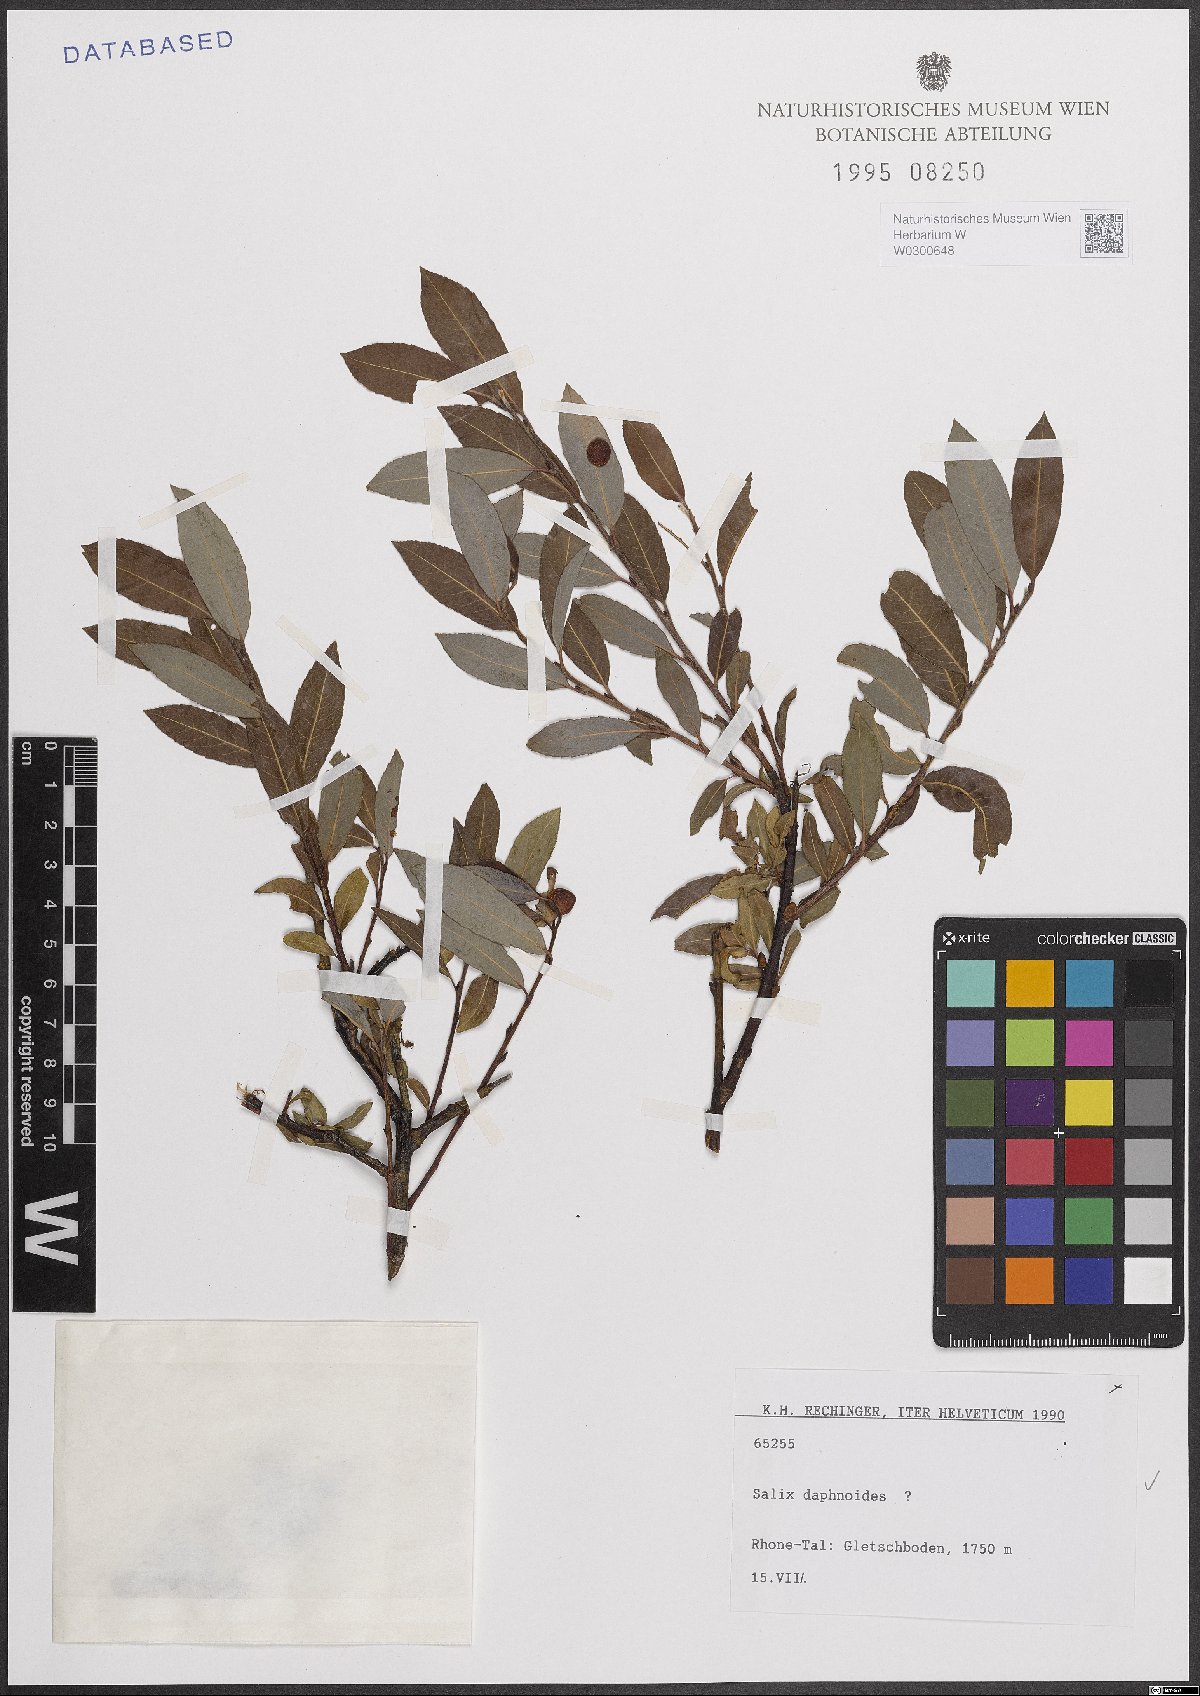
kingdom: Plantae
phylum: Tracheophyta
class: Magnoliopsida
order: Malpighiales
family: Salicaceae
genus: Salix
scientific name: Salix daphnoides
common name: European violet-willow
